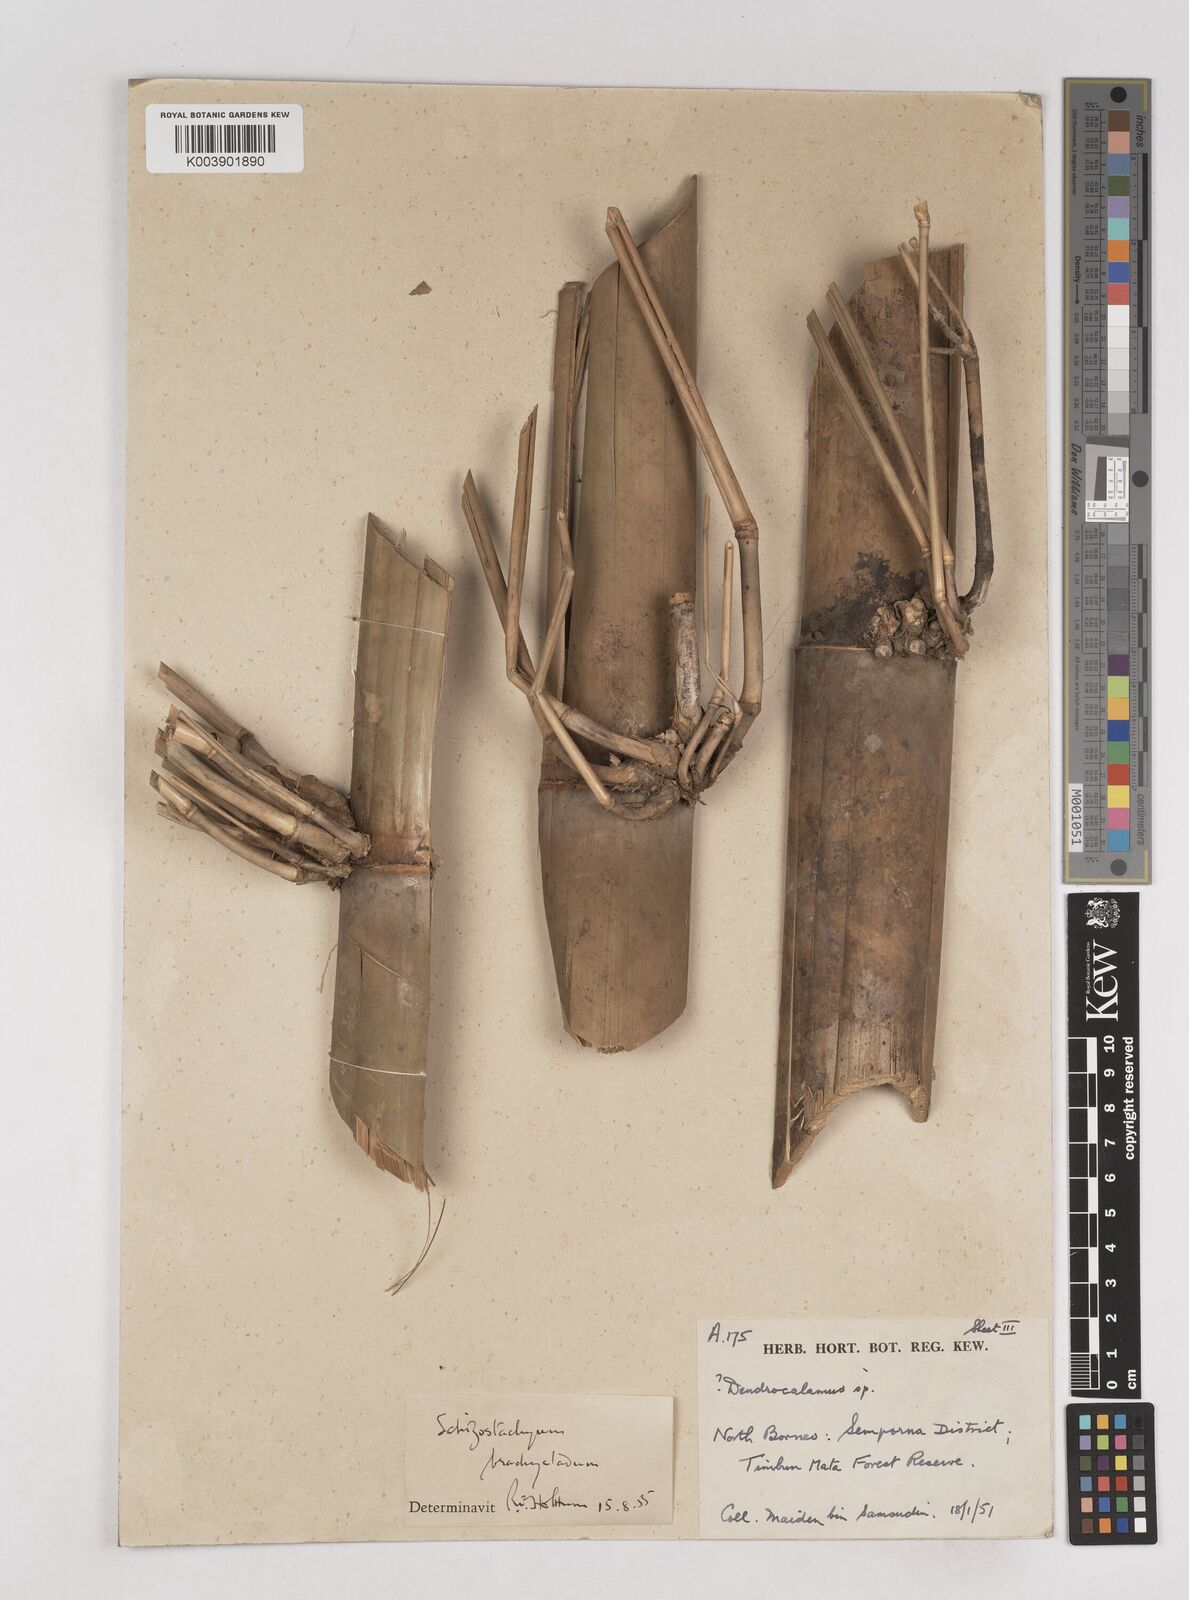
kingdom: Plantae
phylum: Tracheophyta
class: Liliopsida
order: Poales
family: Poaceae
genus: Schizostachyum
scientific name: Schizostachyum brachycladum
